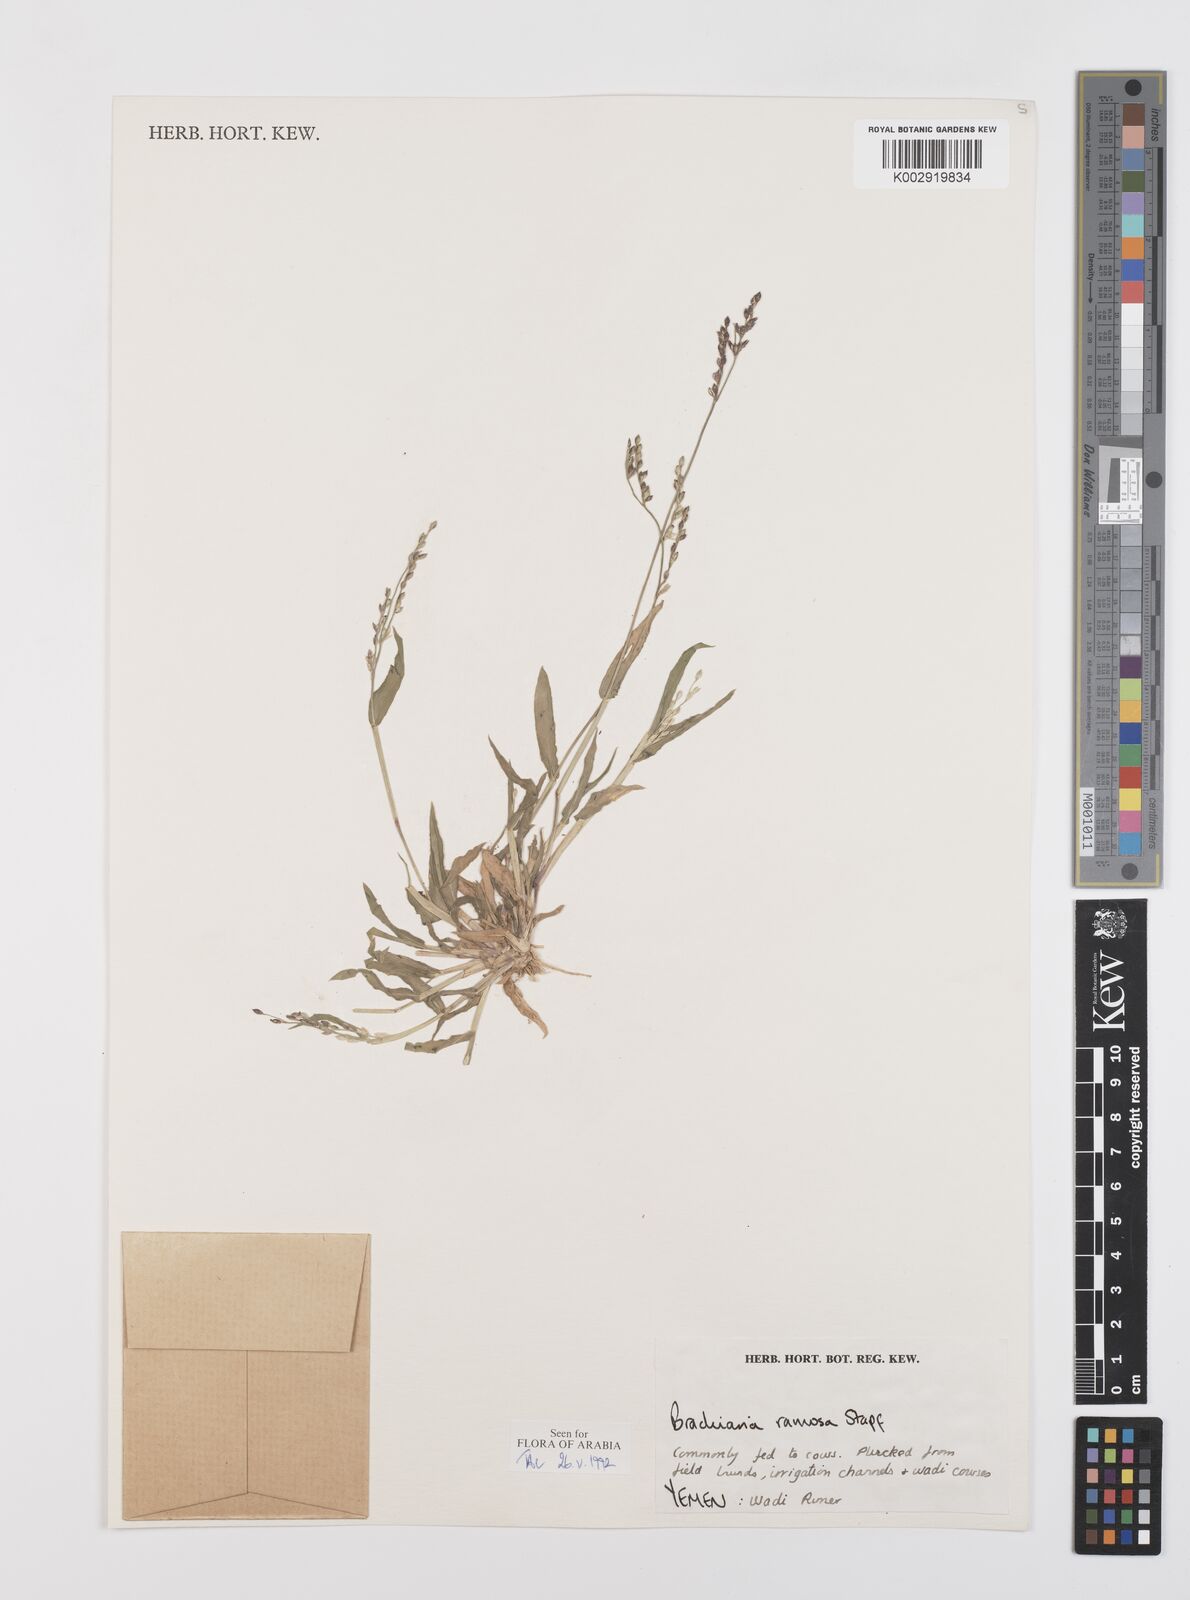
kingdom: Plantae
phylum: Tracheophyta
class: Liliopsida
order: Poales
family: Poaceae
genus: Urochloa
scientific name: Urochloa ramosa
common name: Browntop millet
